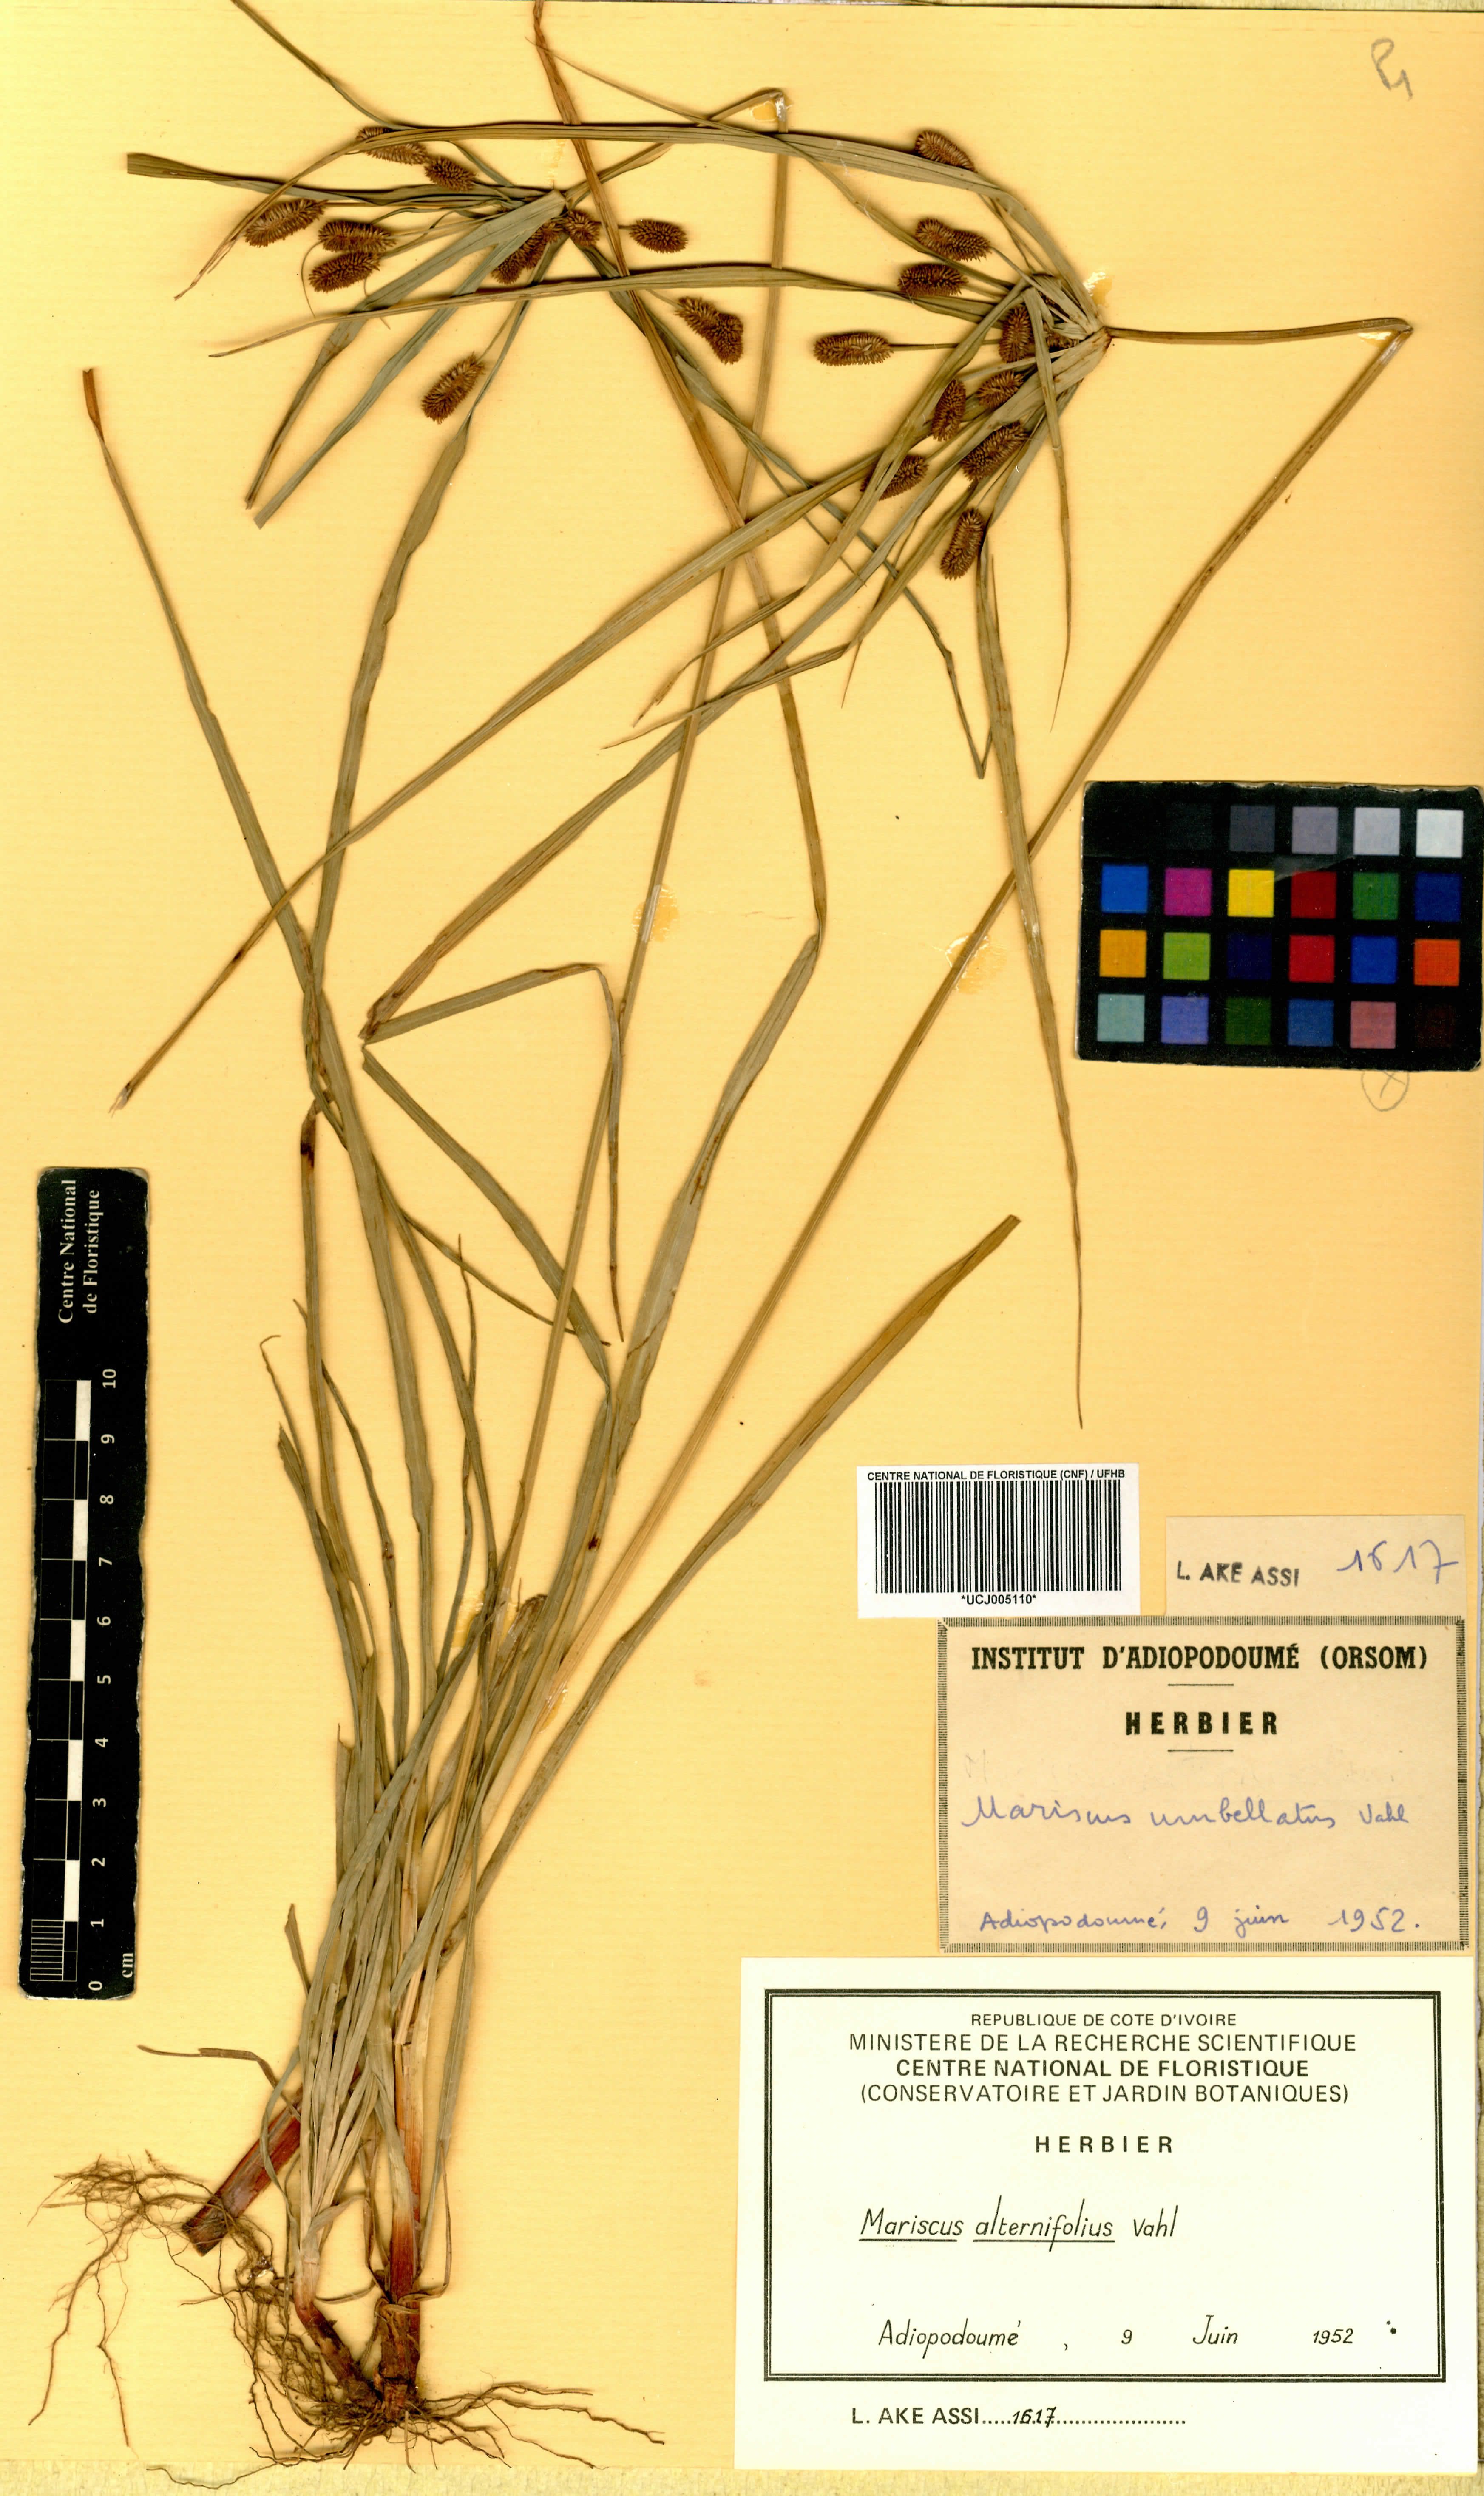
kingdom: Plantae
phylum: Tracheophyta
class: Liliopsida
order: Poales
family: Cyperaceae
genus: Cyperus
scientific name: Cyperus cyperoides
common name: Pacific island flat sedge
